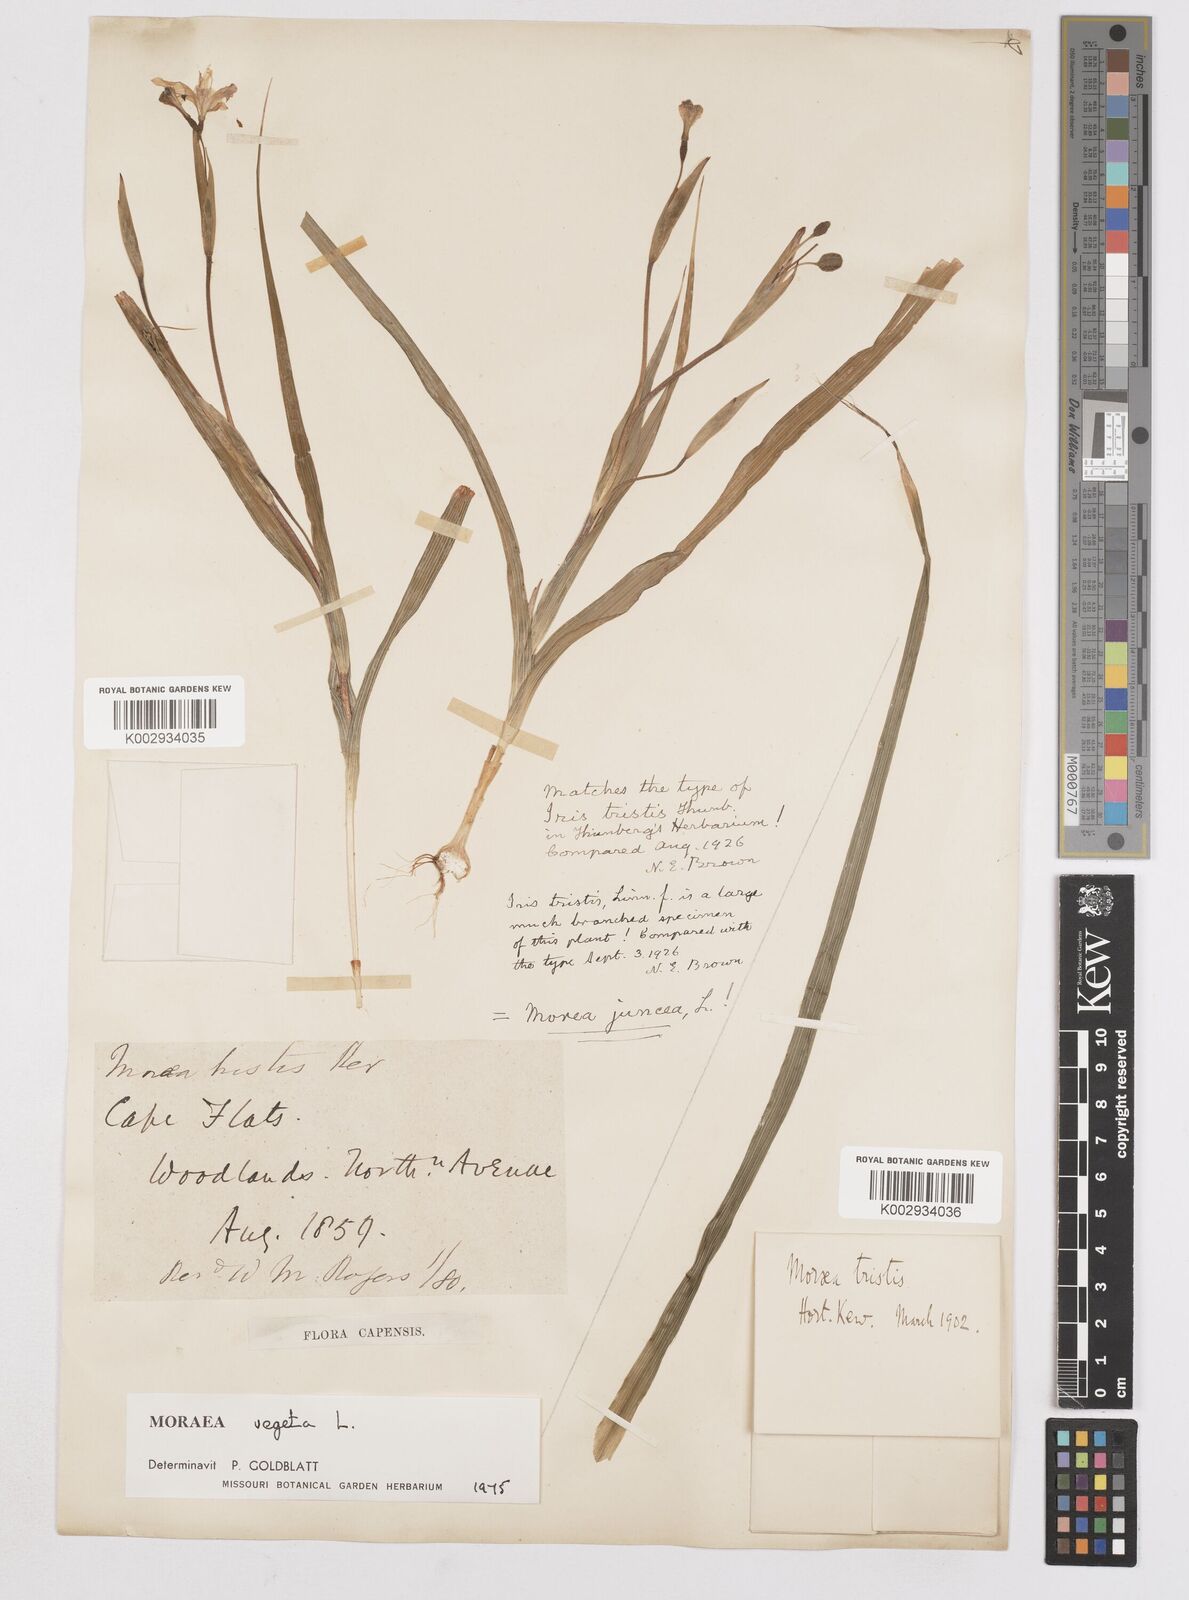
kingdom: Plantae
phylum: Tracheophyta
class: Liliopsida
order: Asparagales
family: Iridaceae
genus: Moraea
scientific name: Moraea vegeta
